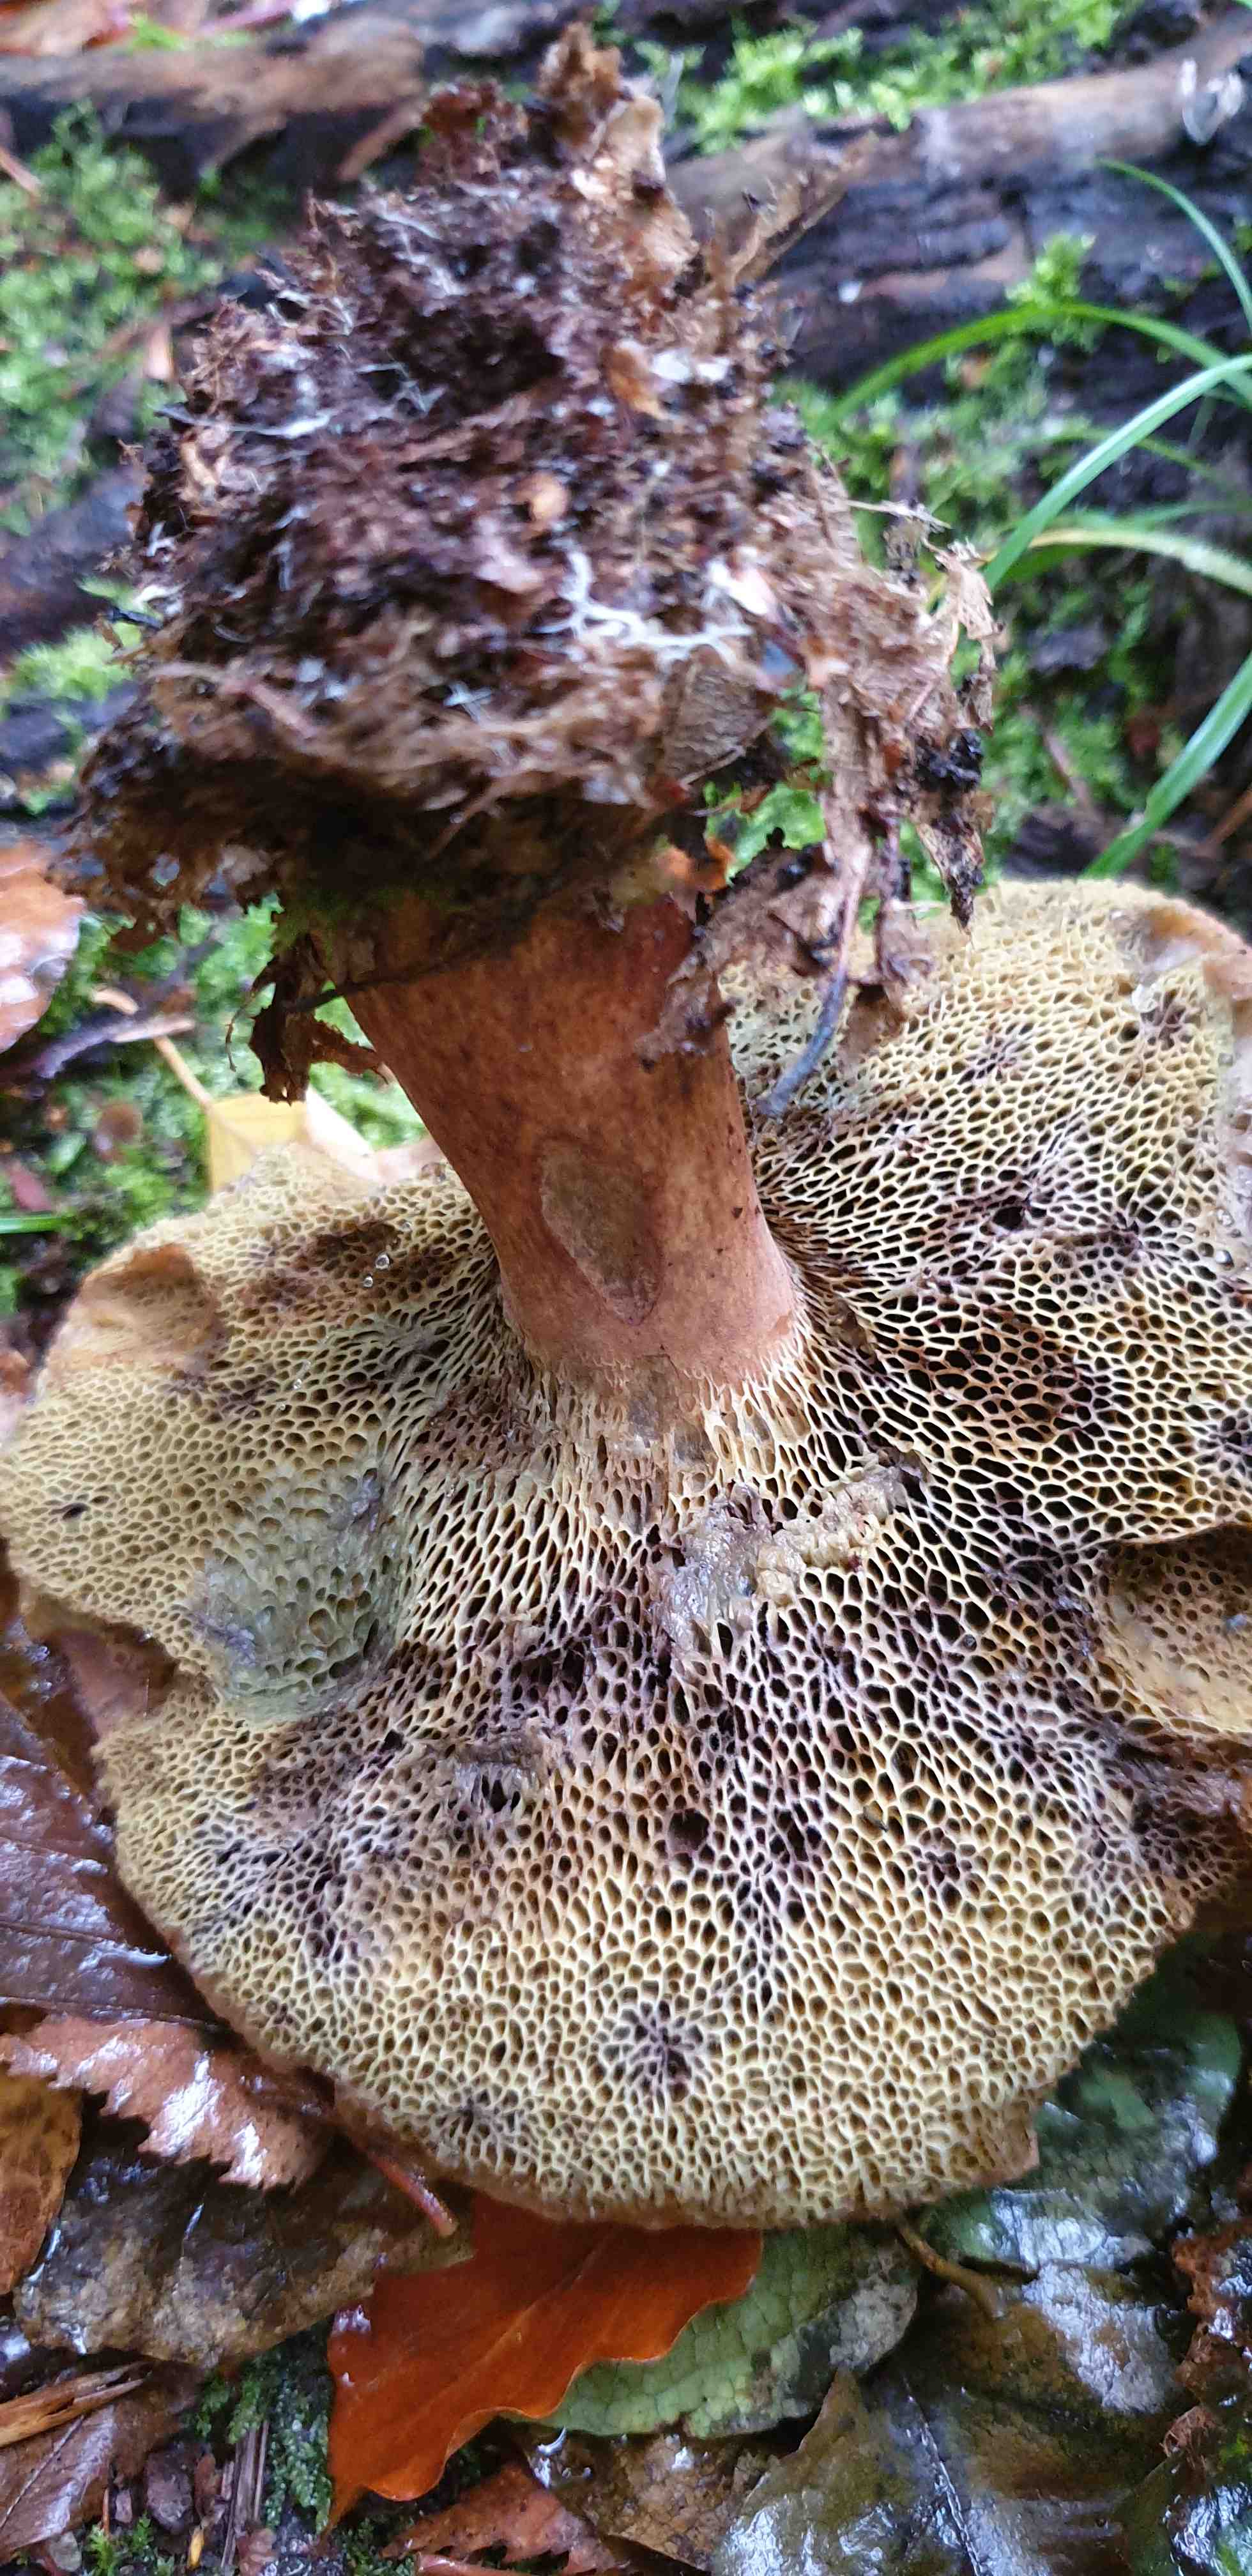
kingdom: Fungi
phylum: Basidiomycota
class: Agaricomycetes
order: Boletales
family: Boletaceae
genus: Imleria
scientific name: Imleria badia
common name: brunstokket rørhat
